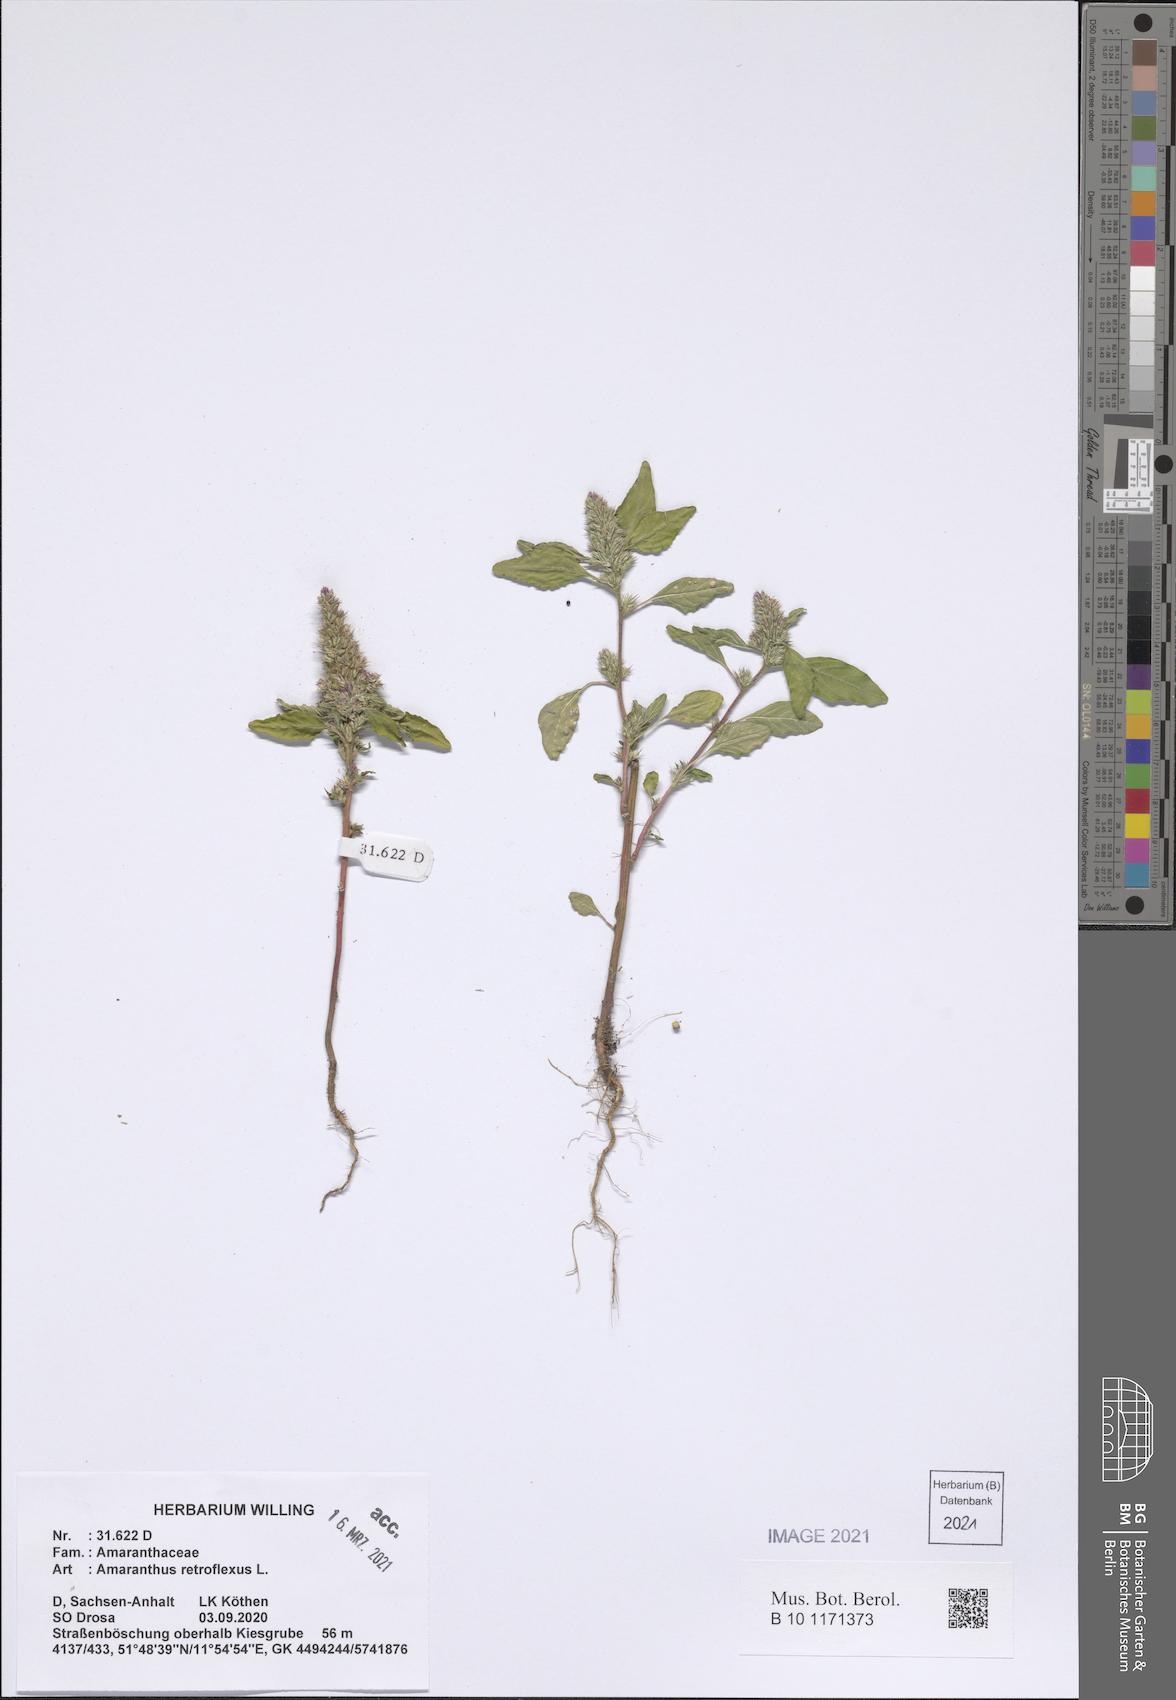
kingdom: Plantae
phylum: Tracheophyta
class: Magnoliopsida
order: Caryophyllales
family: Amaranthaceae
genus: Amaranthus
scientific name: Amaranthus retroflexus
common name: Redroot amaranth
